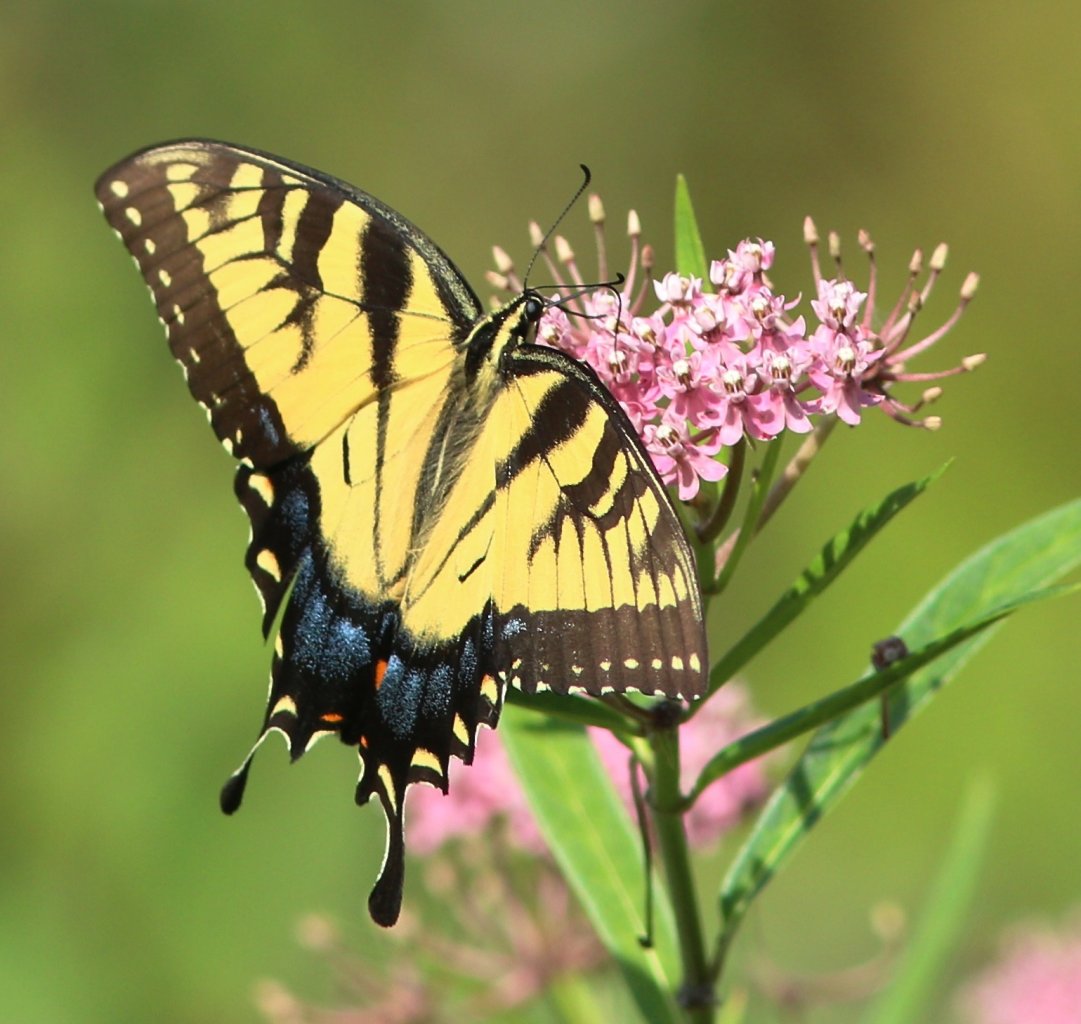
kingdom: Animalia
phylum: Arthropoda
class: Insecta
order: Lepidoptera
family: Papilionidae
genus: Pterourus
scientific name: Pterourus glaucus
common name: Eastern Tiger Swallowtail
